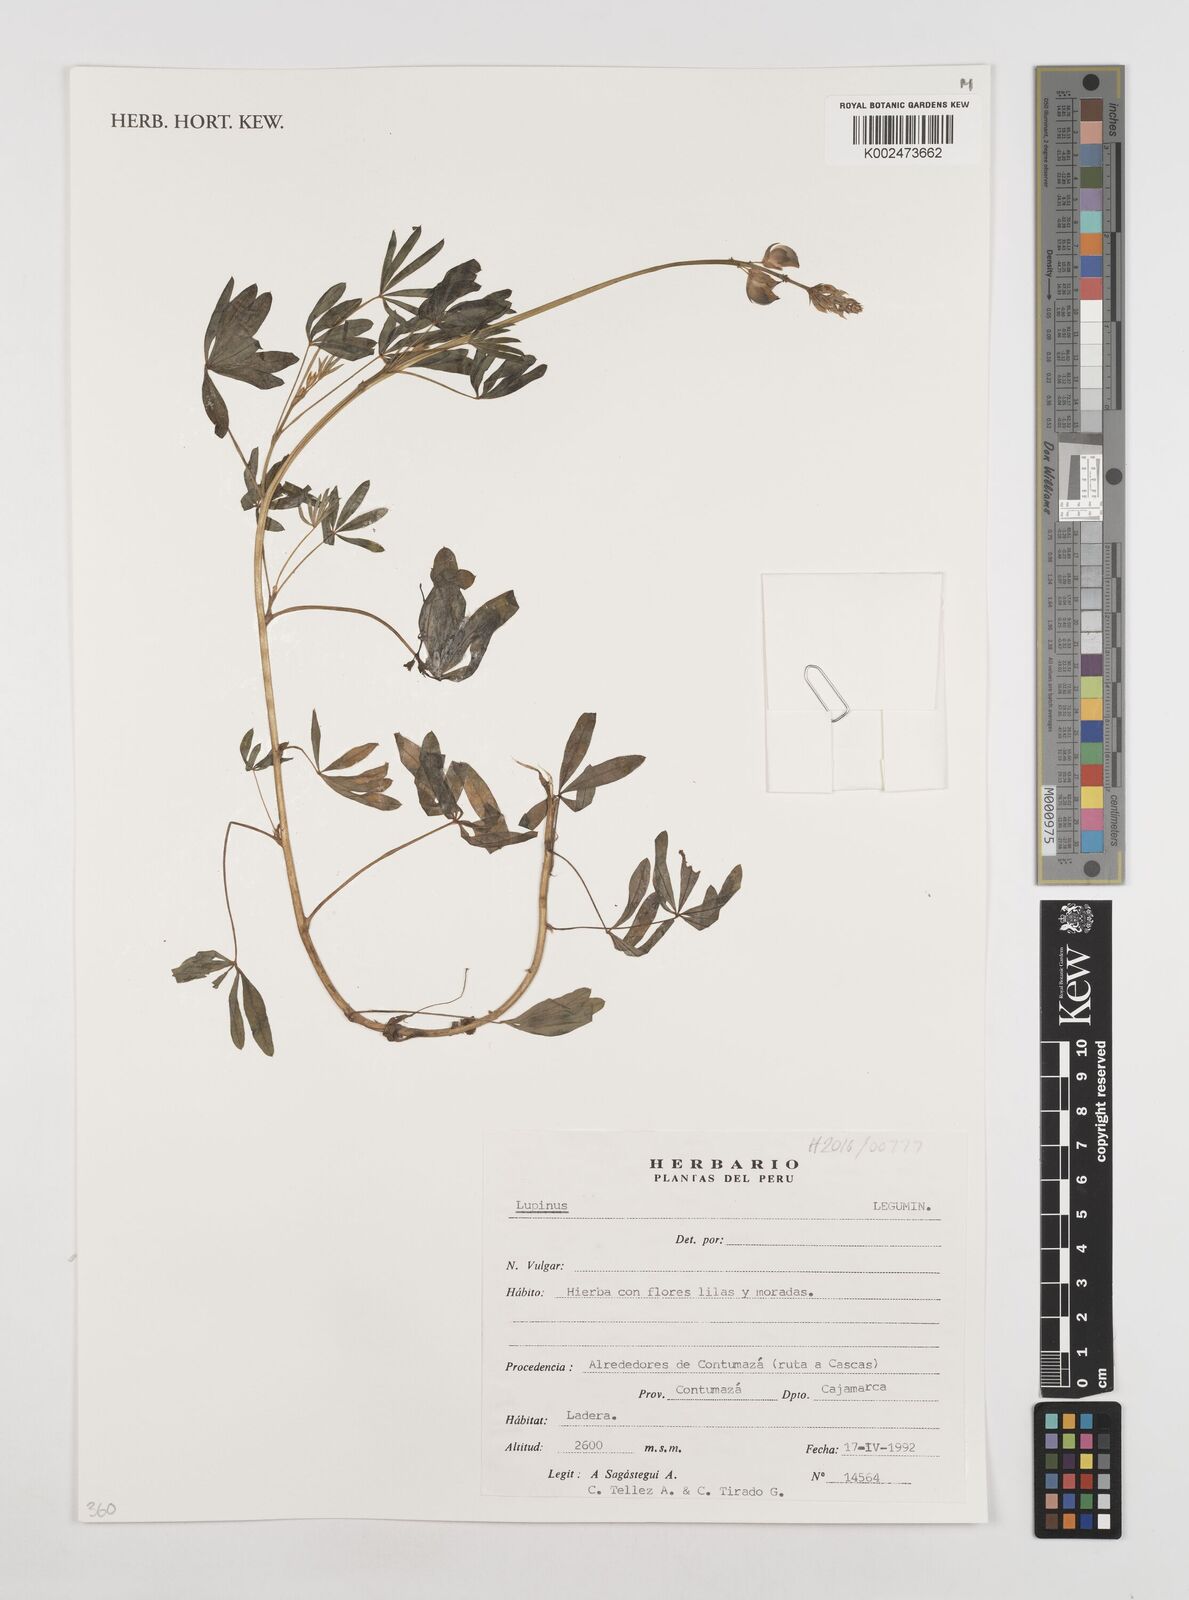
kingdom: Plantae
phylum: Tracheophyta
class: Magnoliopsida
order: Fabales
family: Fabaceae
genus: Lupinus
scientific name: Lupinus
